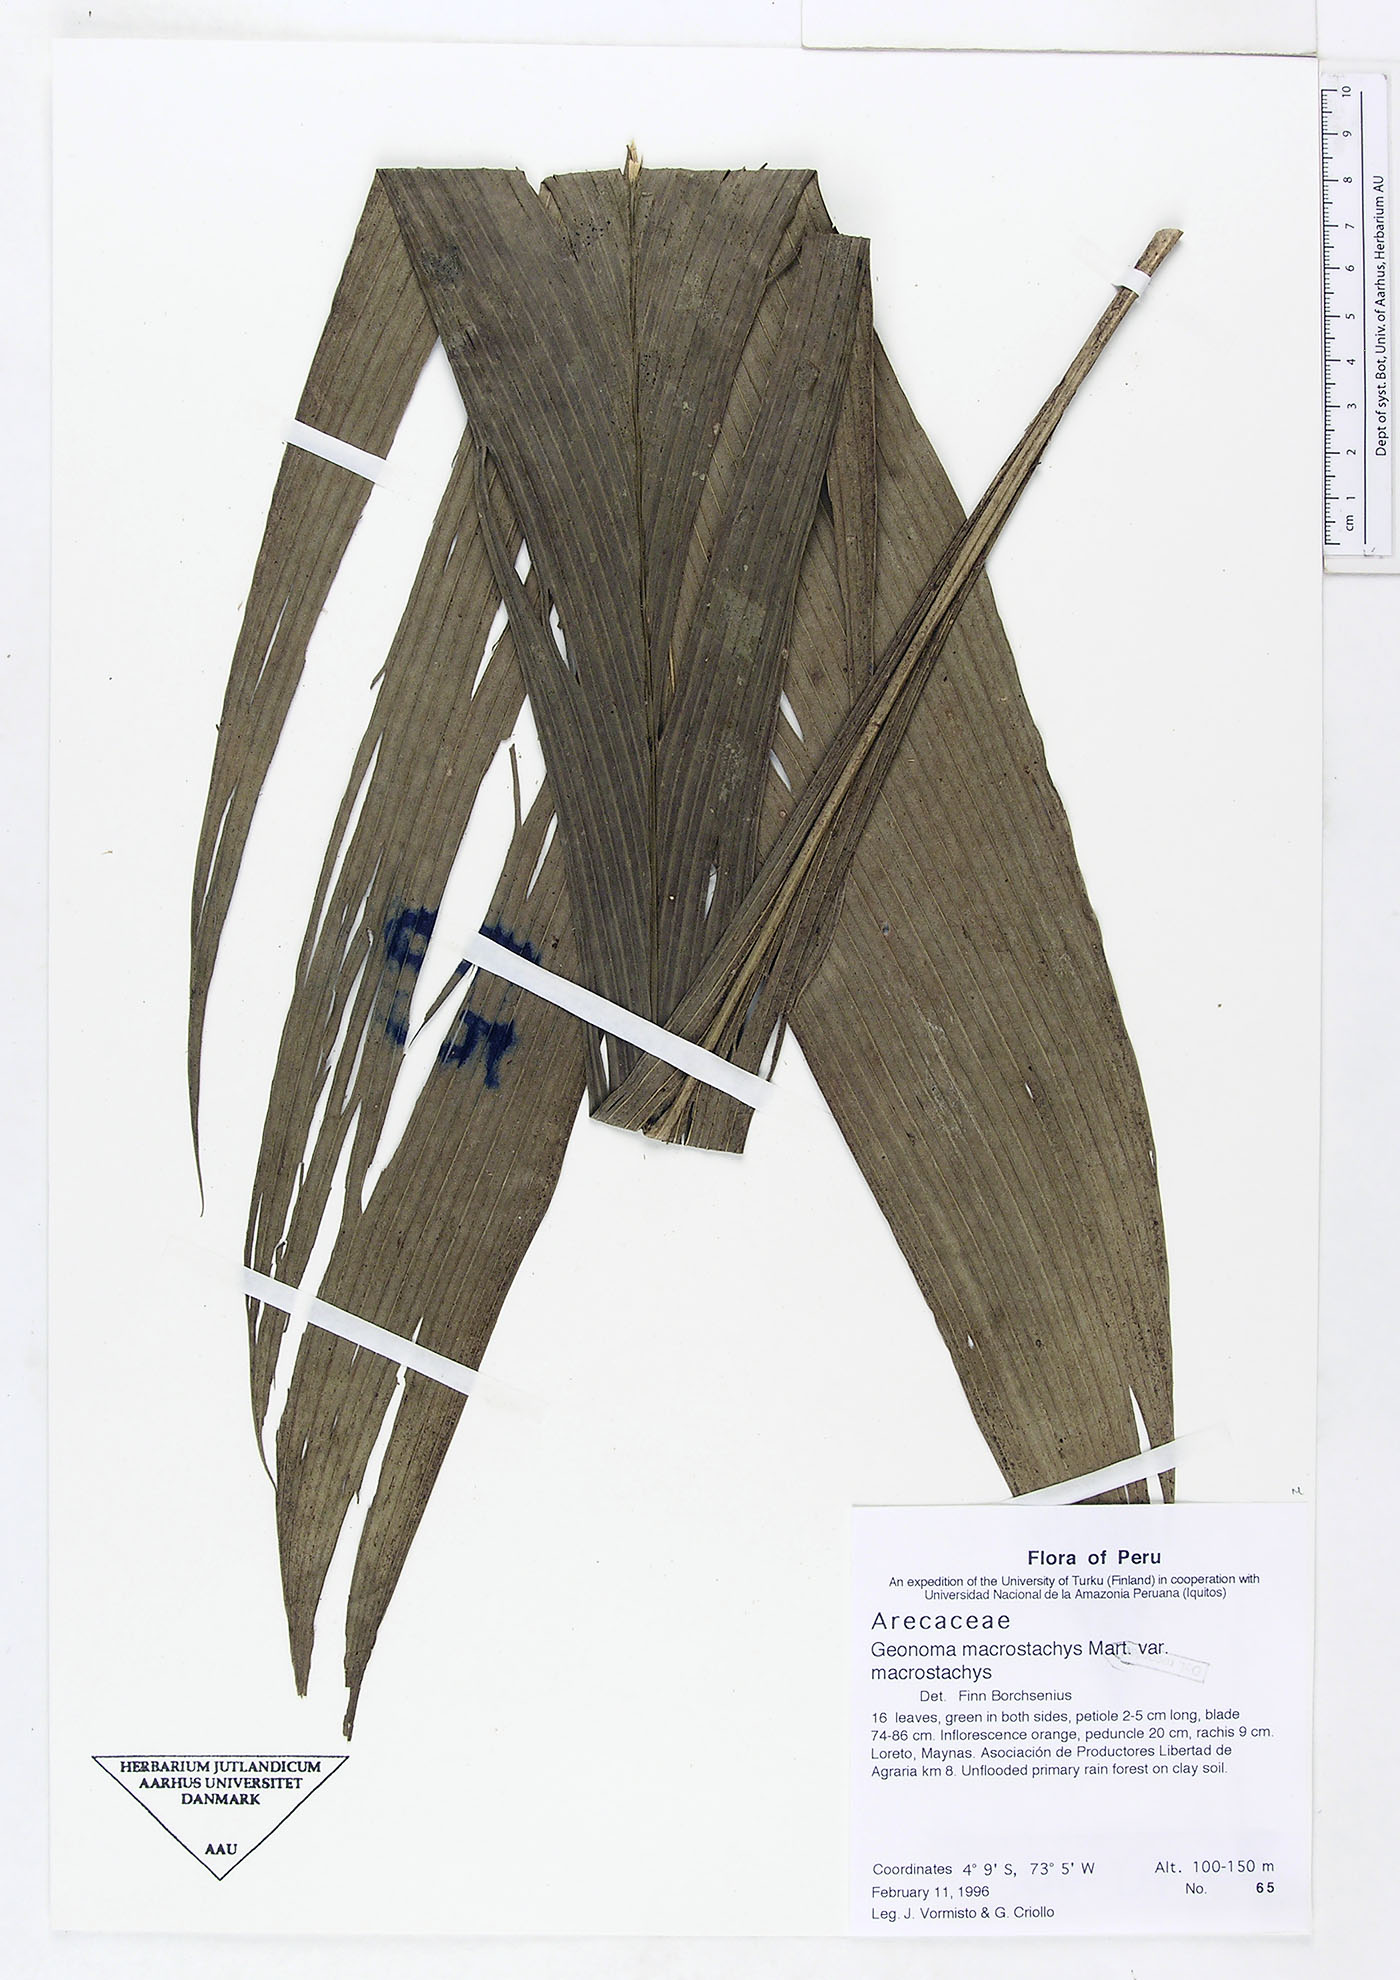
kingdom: Plantae
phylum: Tracheophyta
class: Liliopsida
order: Arecales
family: Arecaceae
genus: Geonoma
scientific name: Geonoma macrostachys
